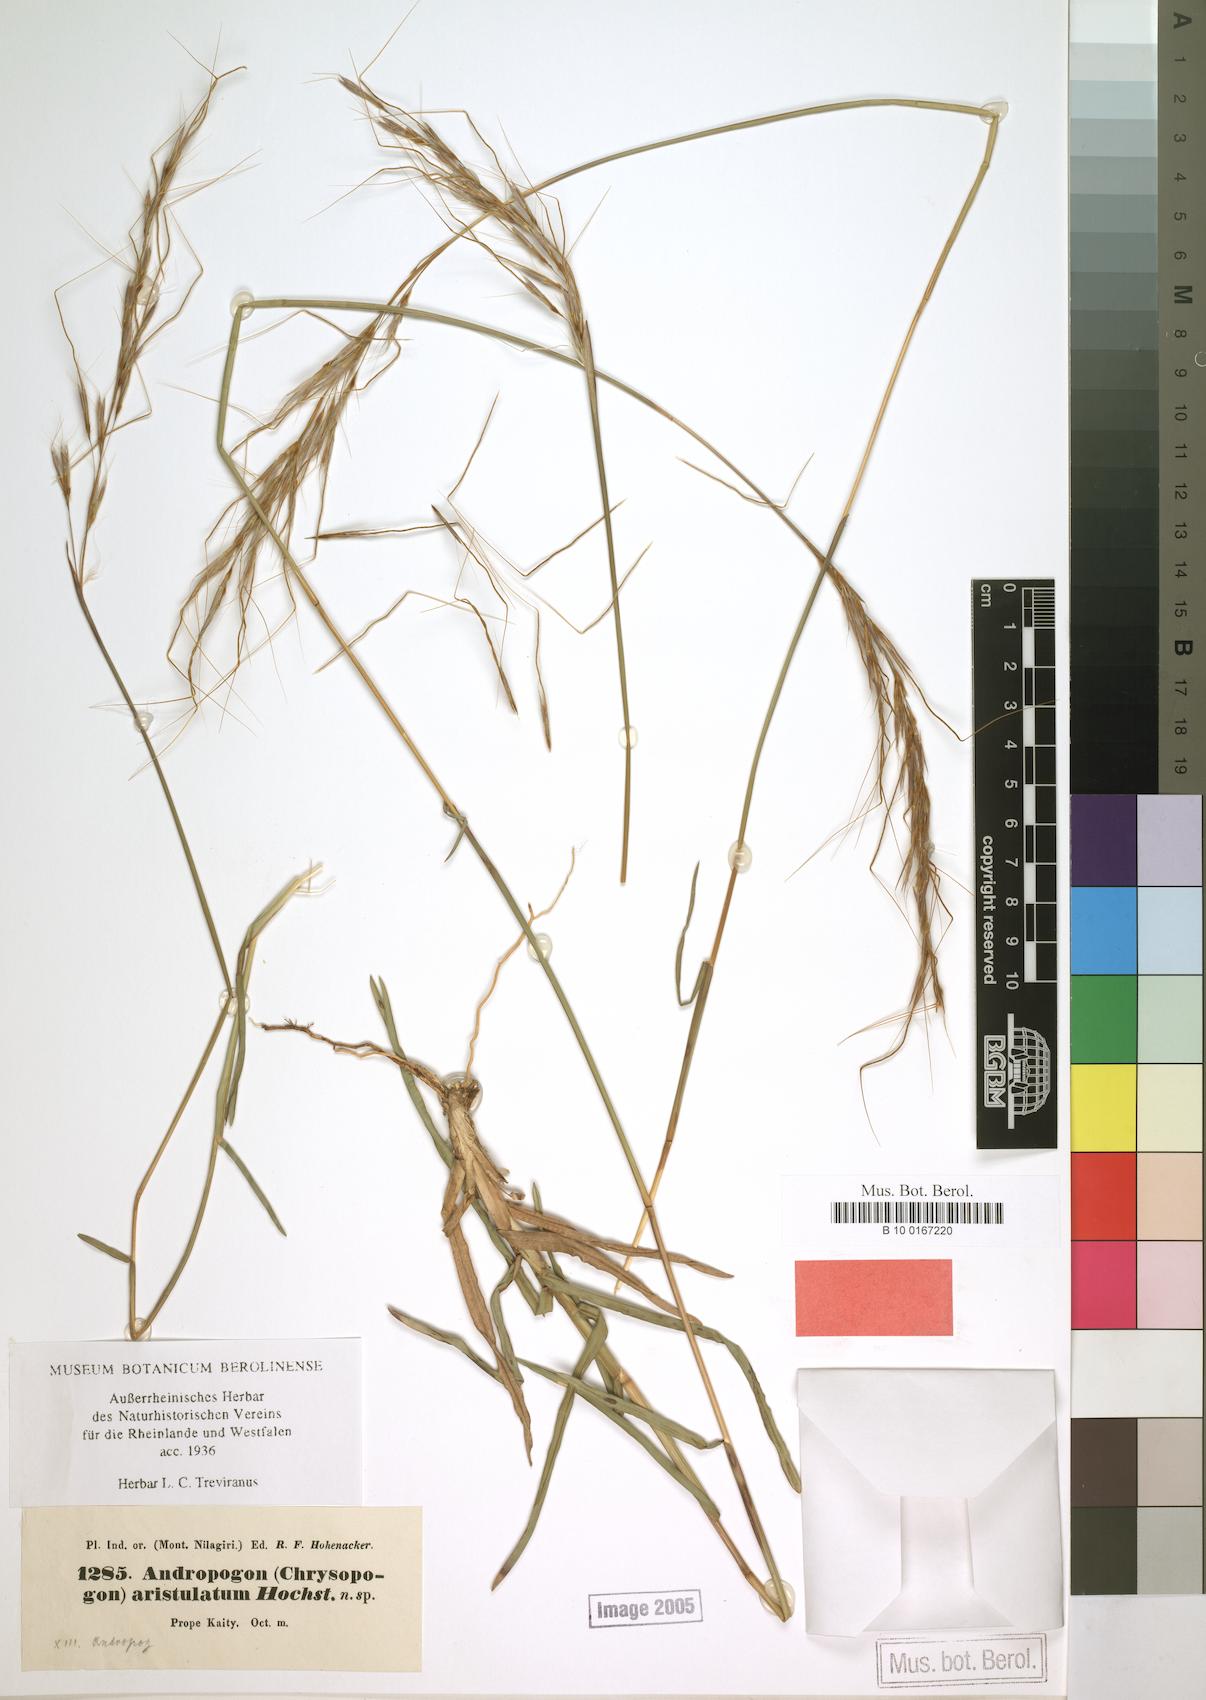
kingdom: Plantae
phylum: Tracheophyta
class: Liliopsida
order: Poales
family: Poaceae
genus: Chrysopogon
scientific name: Chrysopogon orientalis
